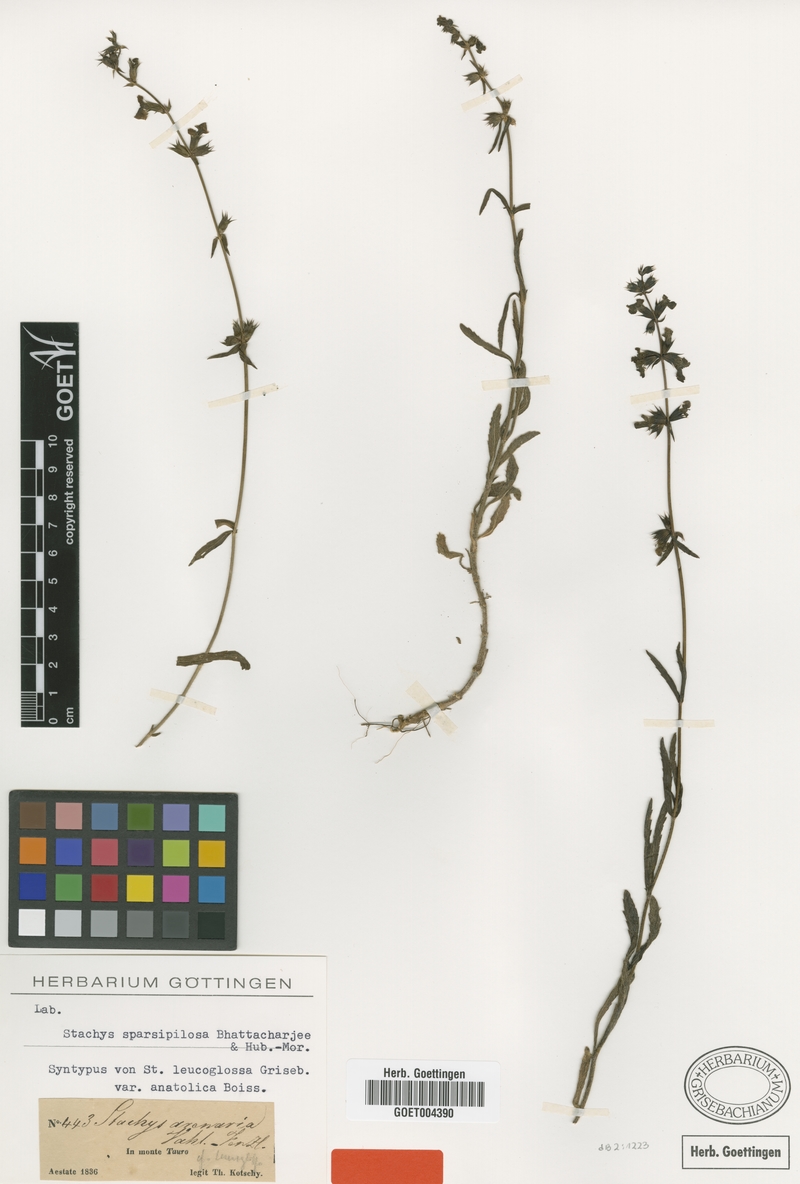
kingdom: Plantae
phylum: Tracheophyta
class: Magnoliopsida
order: Lamiales
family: Lamiaceae
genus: Stachys
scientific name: Stachys sparsipilosa
